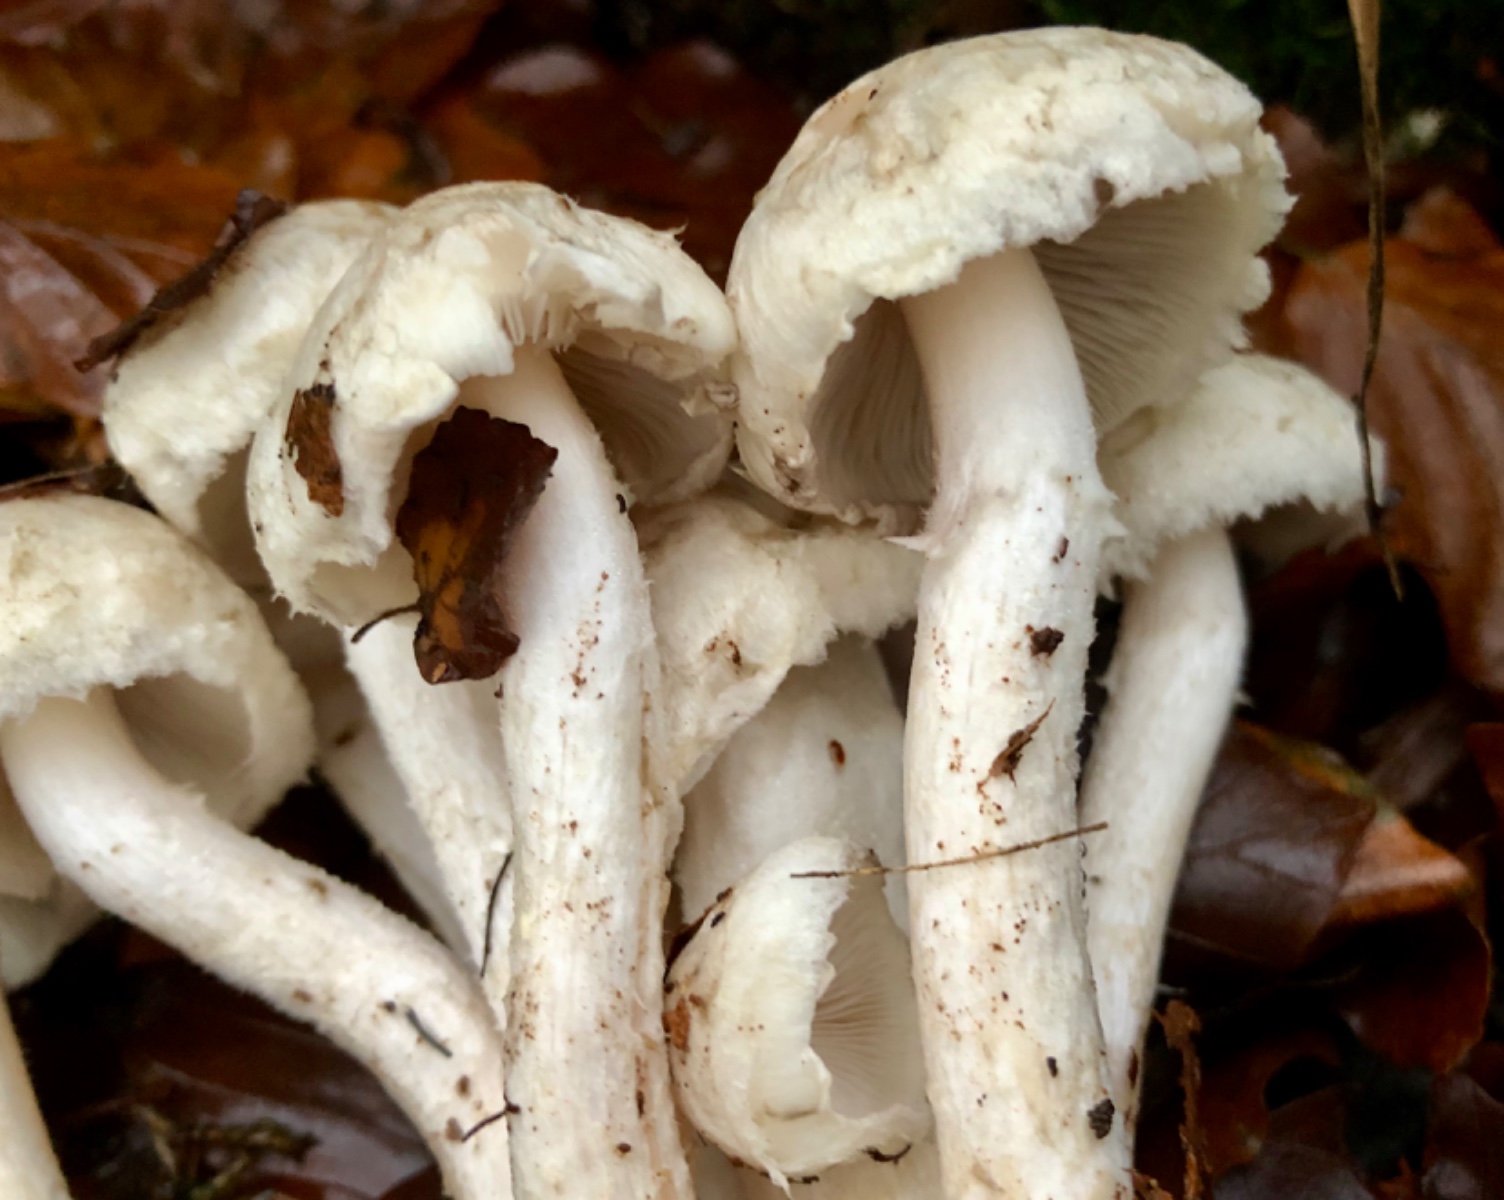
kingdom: Fungi
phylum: Basidiomycota
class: Agaricomycetes
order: Agaricales
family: Psathyrellaceae
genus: Psathyrella
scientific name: Psathyrella cotonea
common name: skællet mørkhat
